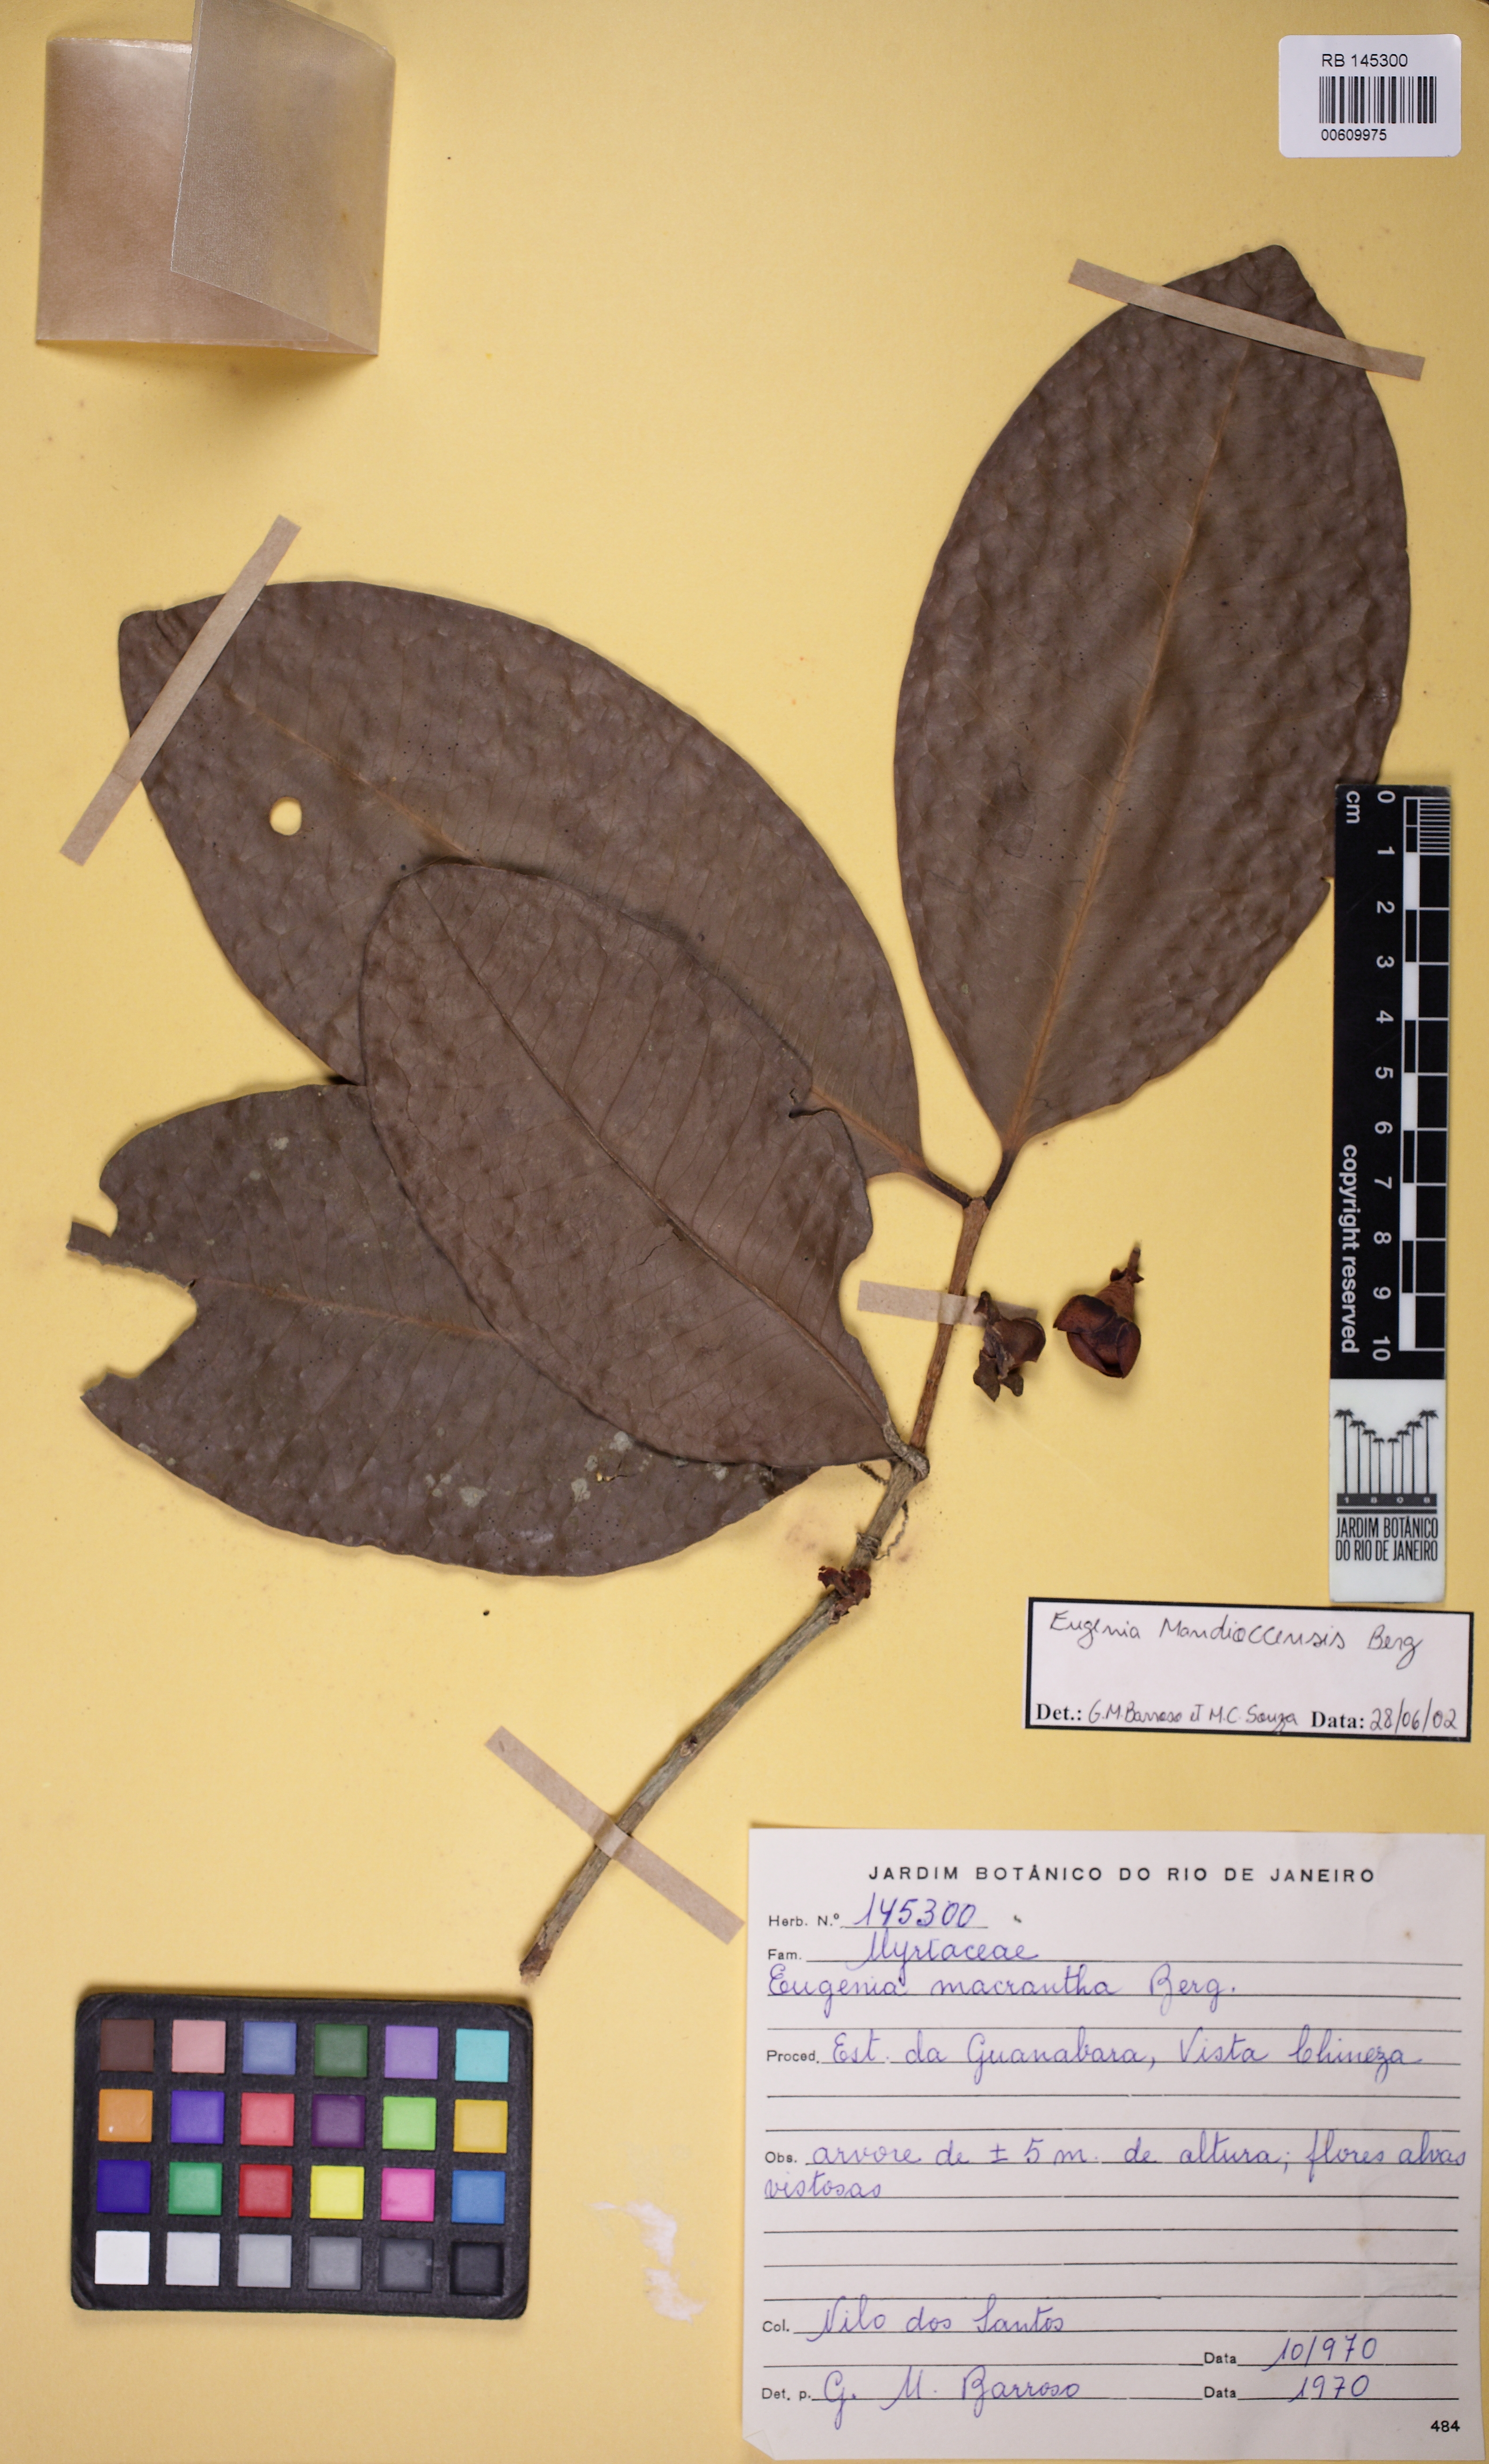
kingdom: Plantae
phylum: Tracheophyta
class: Magnoliopsida
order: Myrtales
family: Myrtaceae
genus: Eugenia
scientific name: Eugenia mandioccensis
